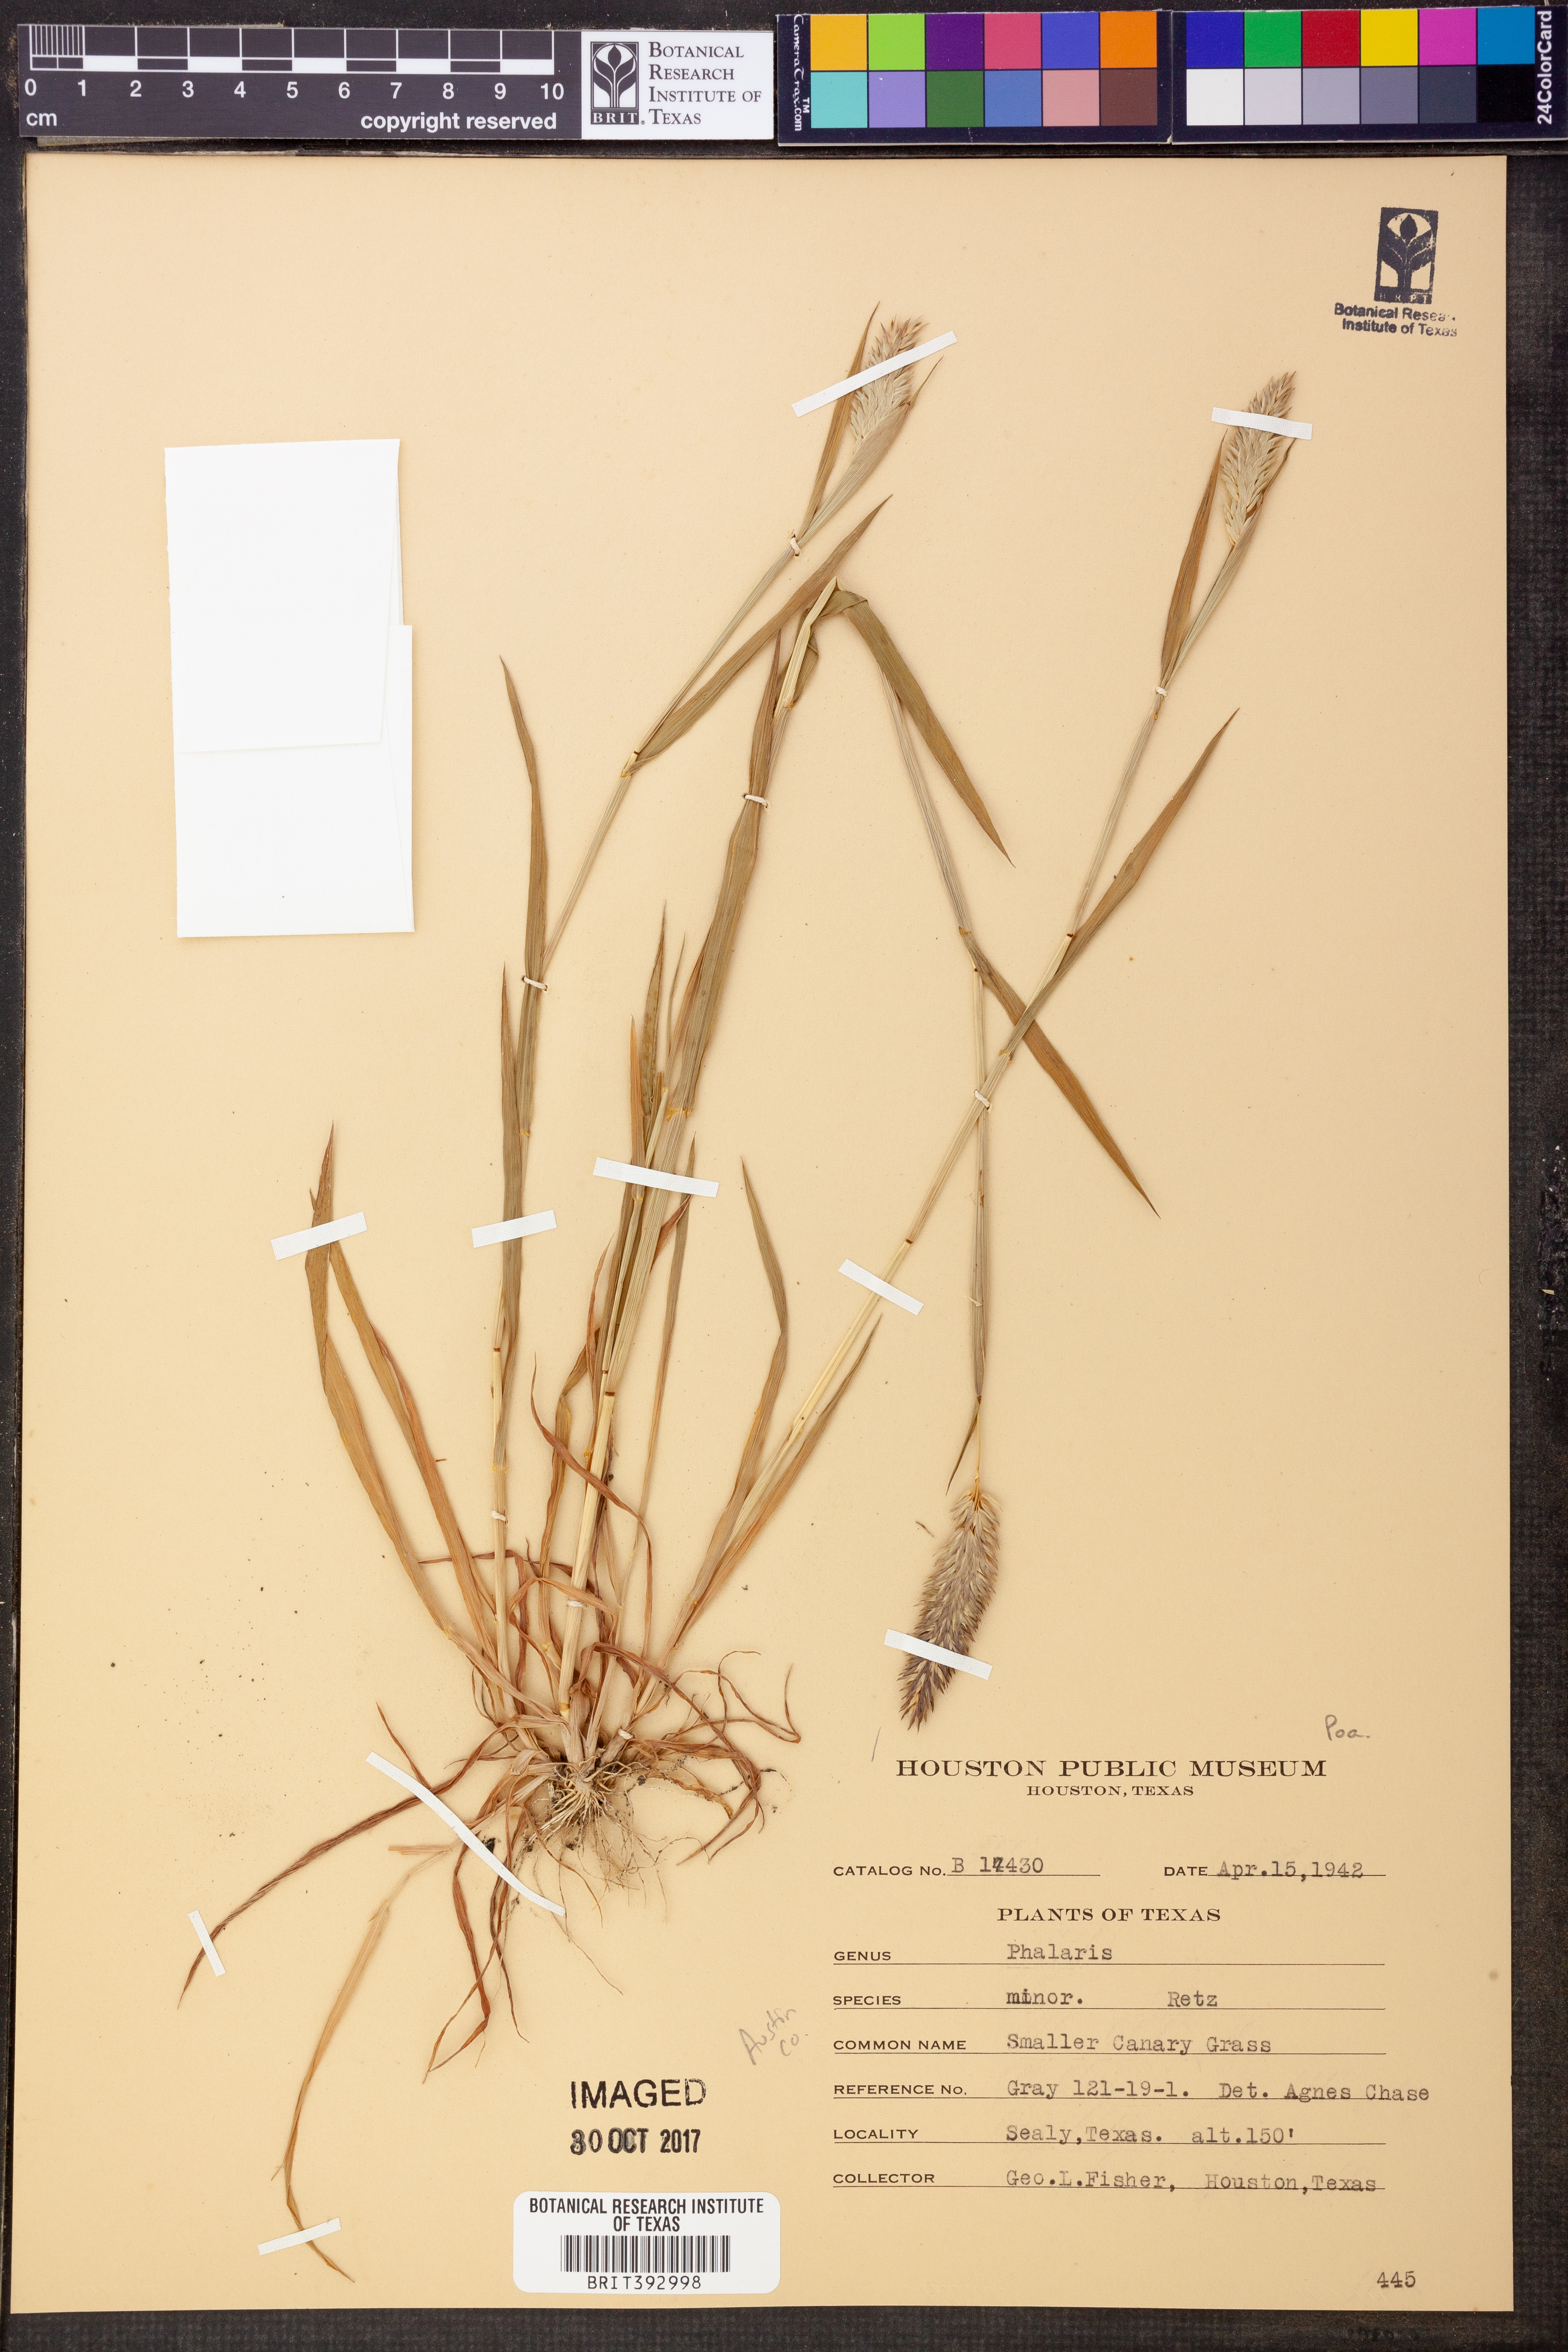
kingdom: Plantae
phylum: Tracheophyta
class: Liliopsida
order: Poales
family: Poaceae
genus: Phalaris
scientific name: Phalaris minor
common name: Littleseed canarygrass
